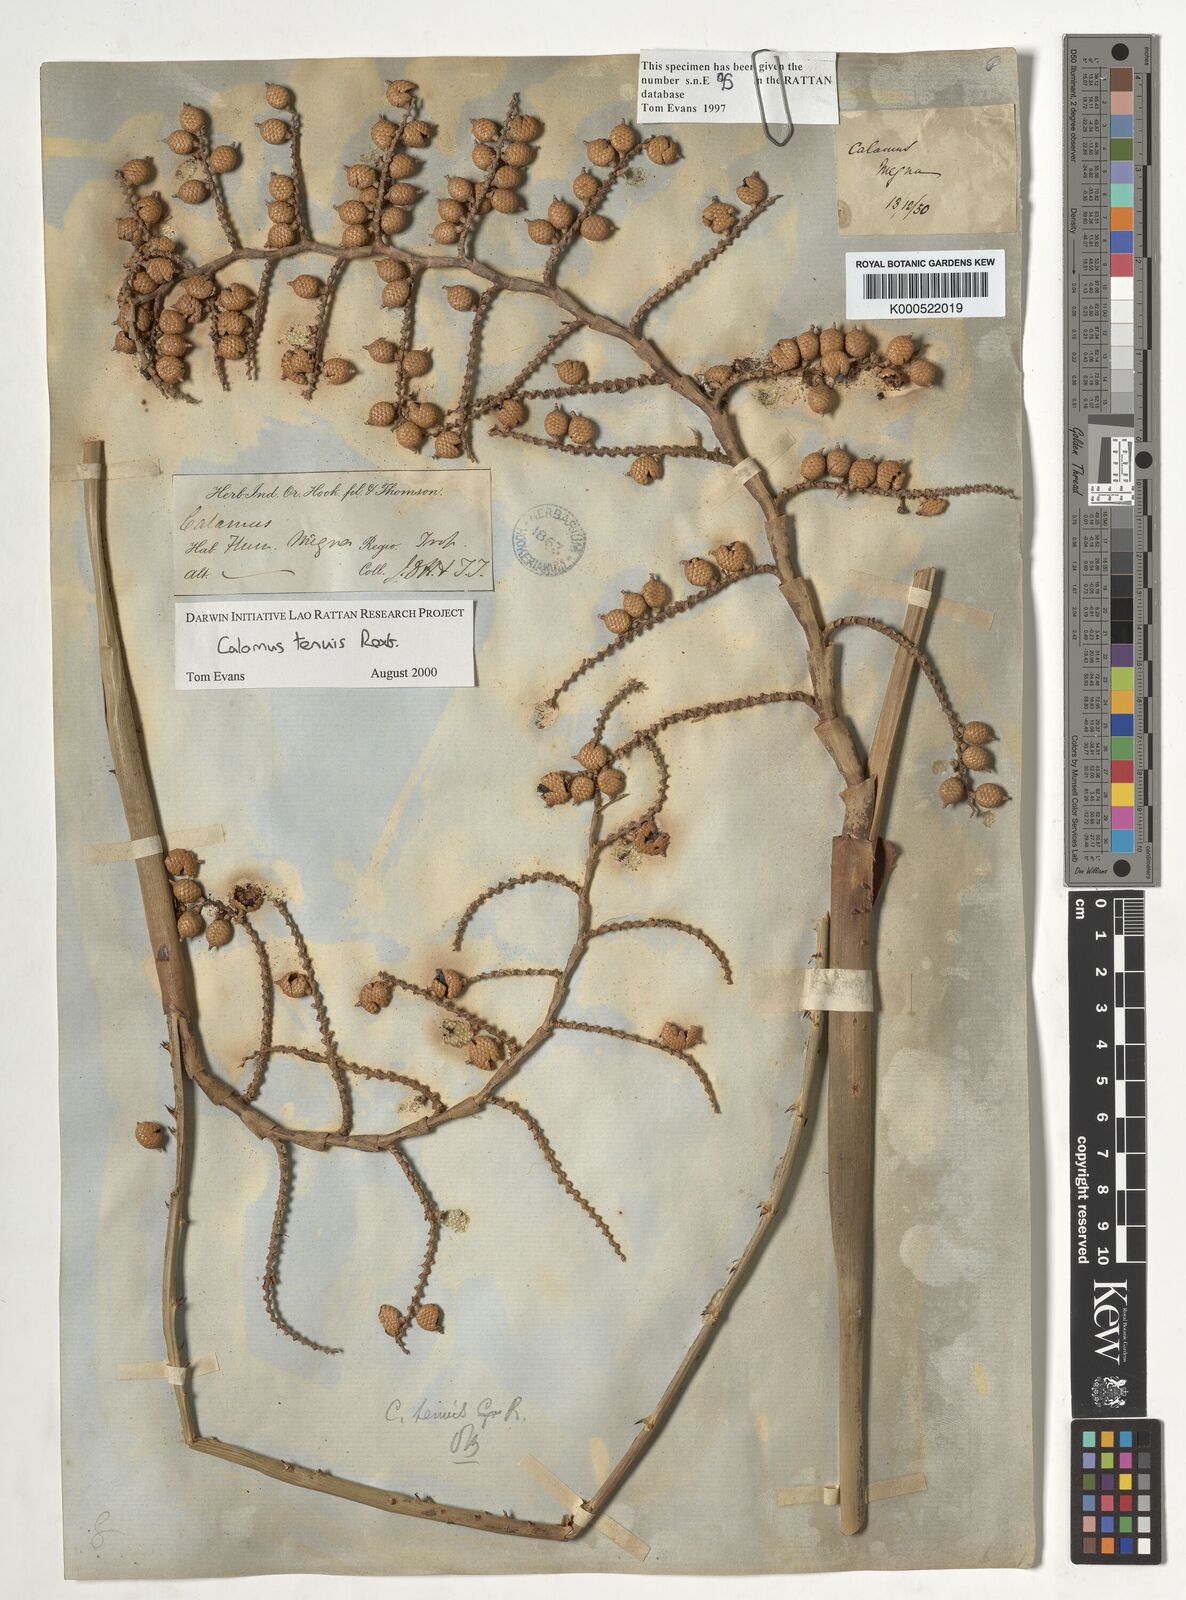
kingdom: Plantae
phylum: Tracheophyta
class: Liliopsida
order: Arecales
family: Arecaceae
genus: Calamus
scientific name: Calamus tenuis
